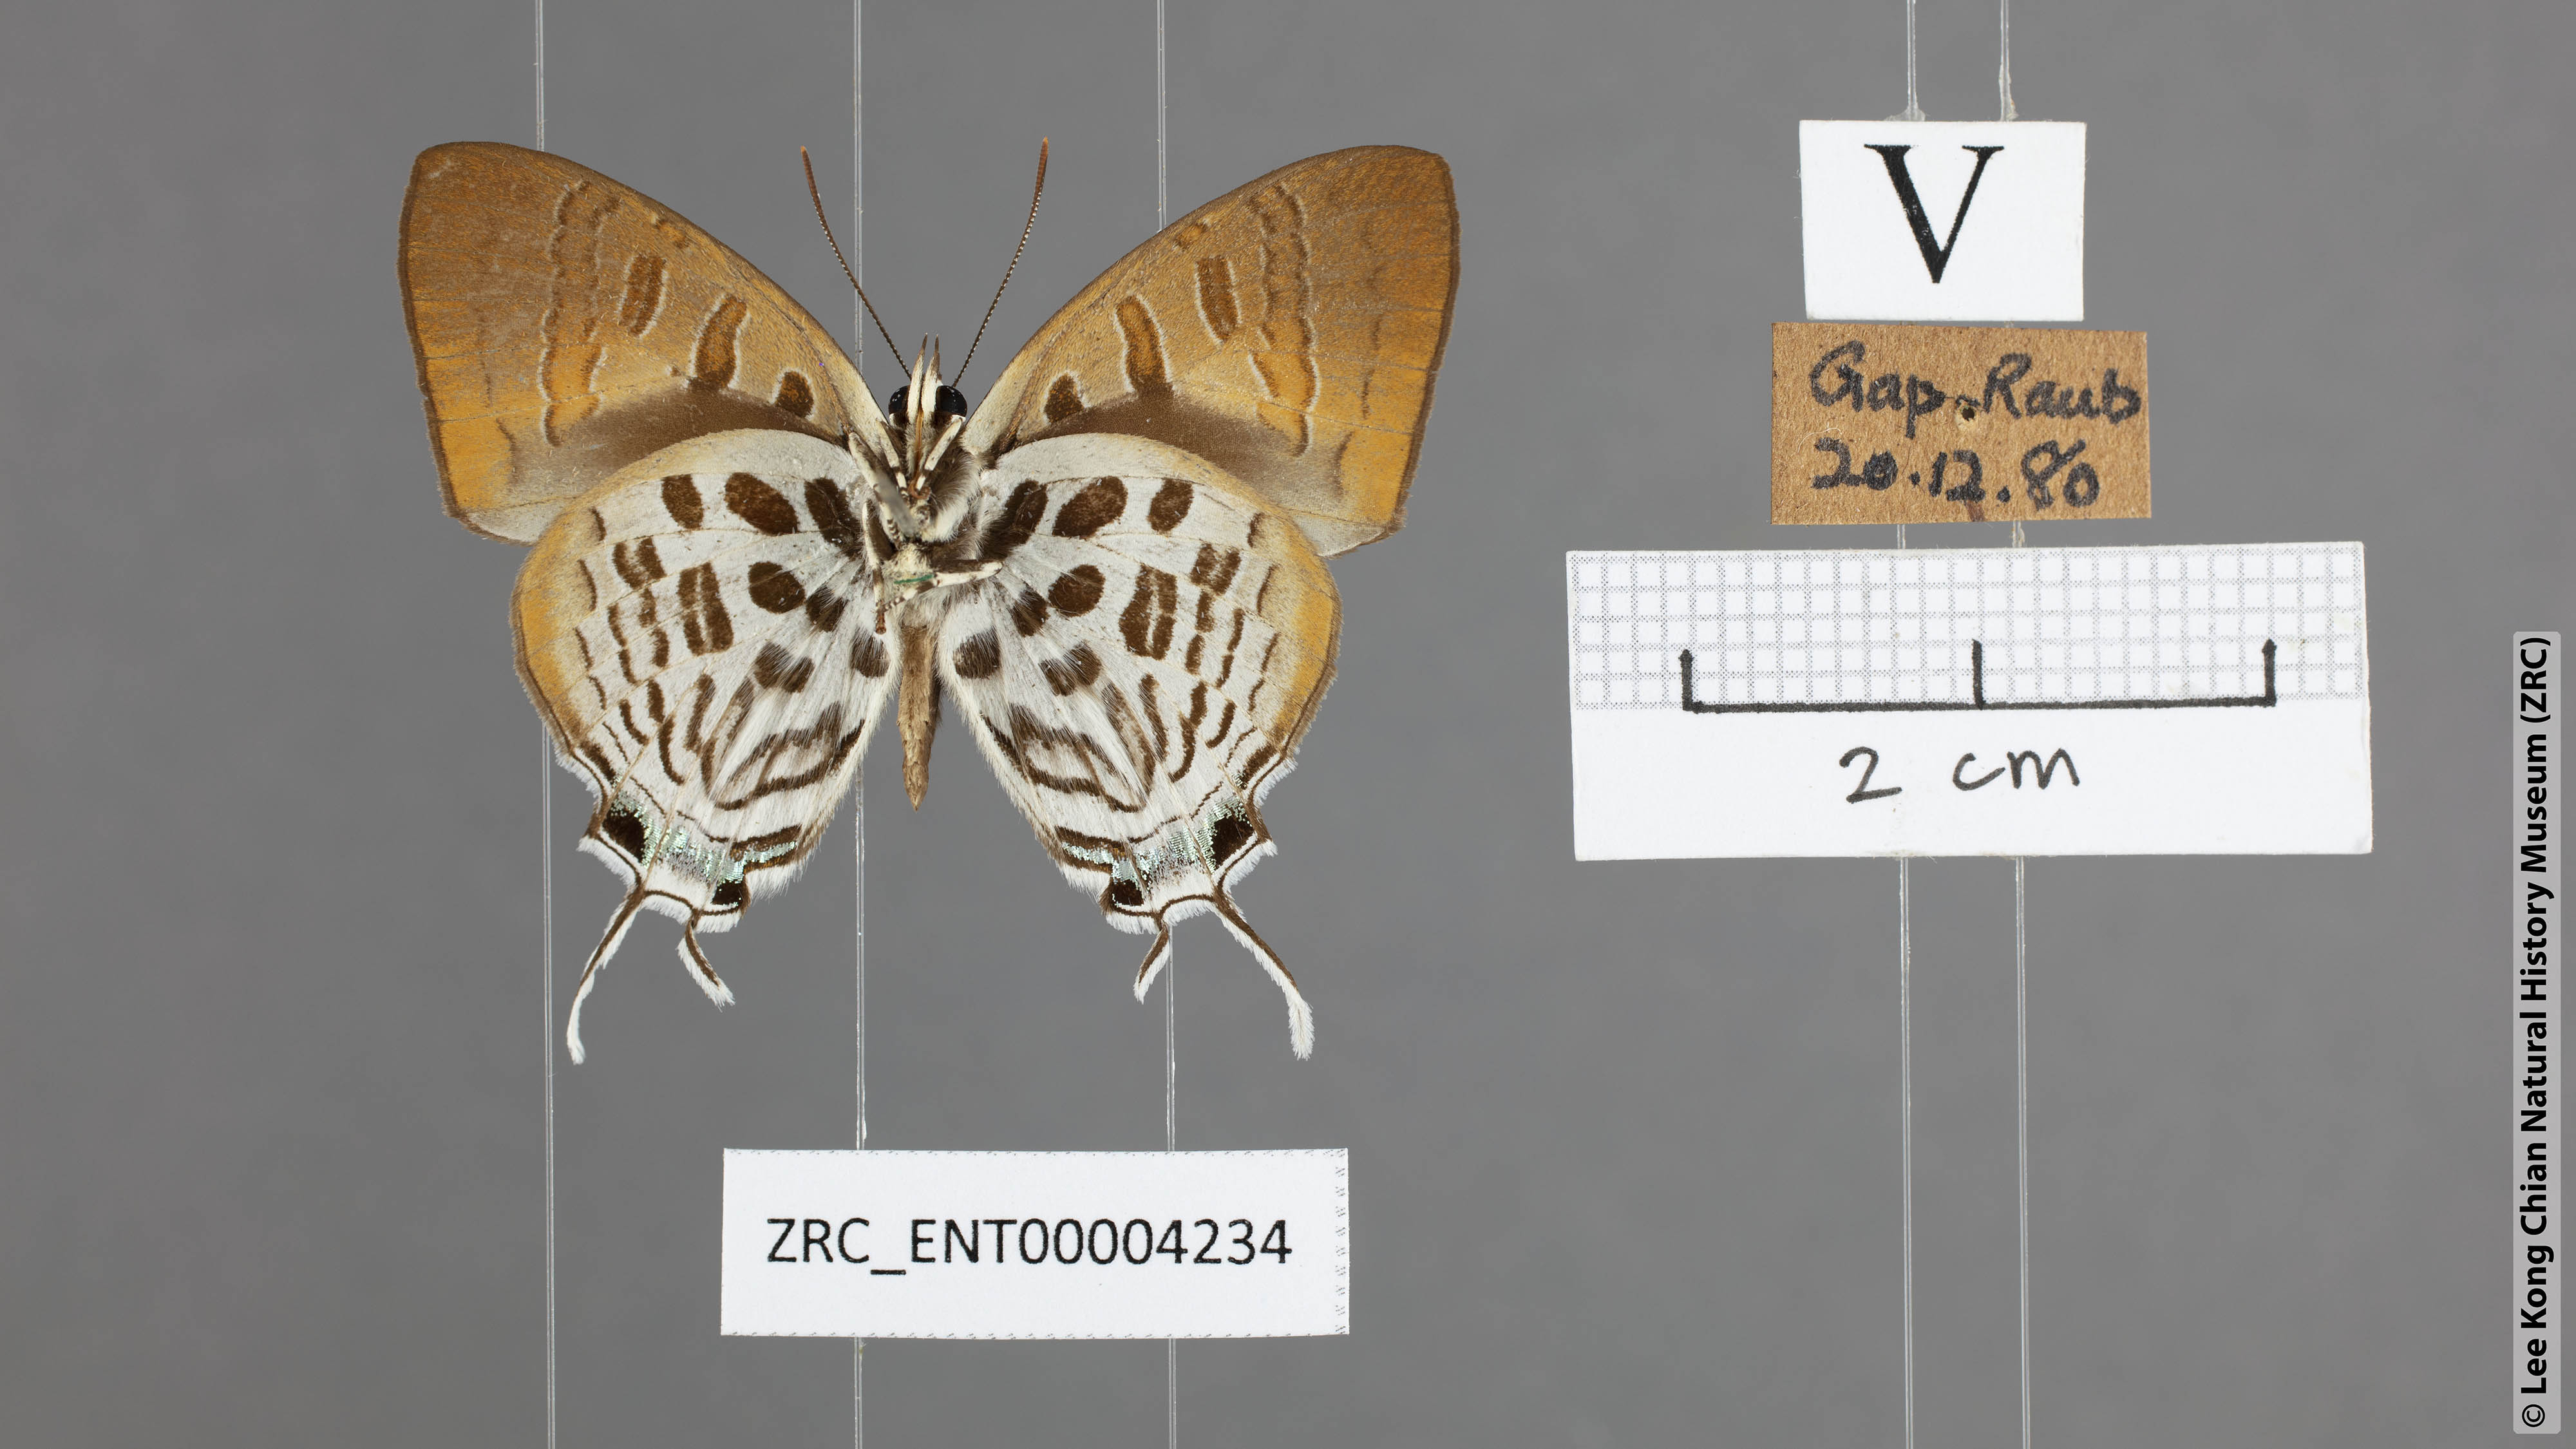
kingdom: Animalia
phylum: Arthropoda
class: Insecta
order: Lepidoptera
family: Lycaenidae
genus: Drupadia
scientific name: Drupadia theda
